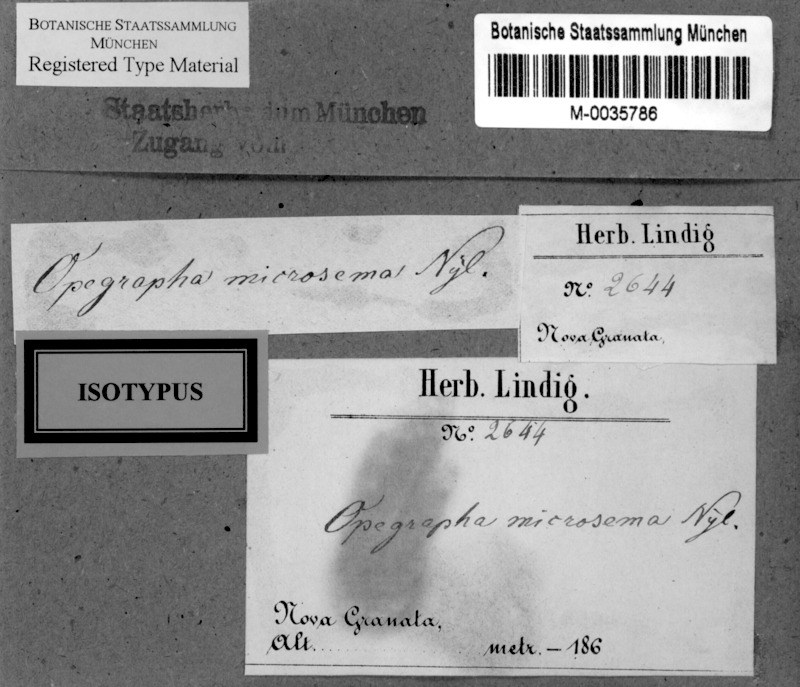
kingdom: Fungi
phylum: Ascomycota
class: Arthoniomycetes
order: Arthoniales
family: Opegraphaceae
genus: Opegrapha
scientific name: Opegrapha microsema
